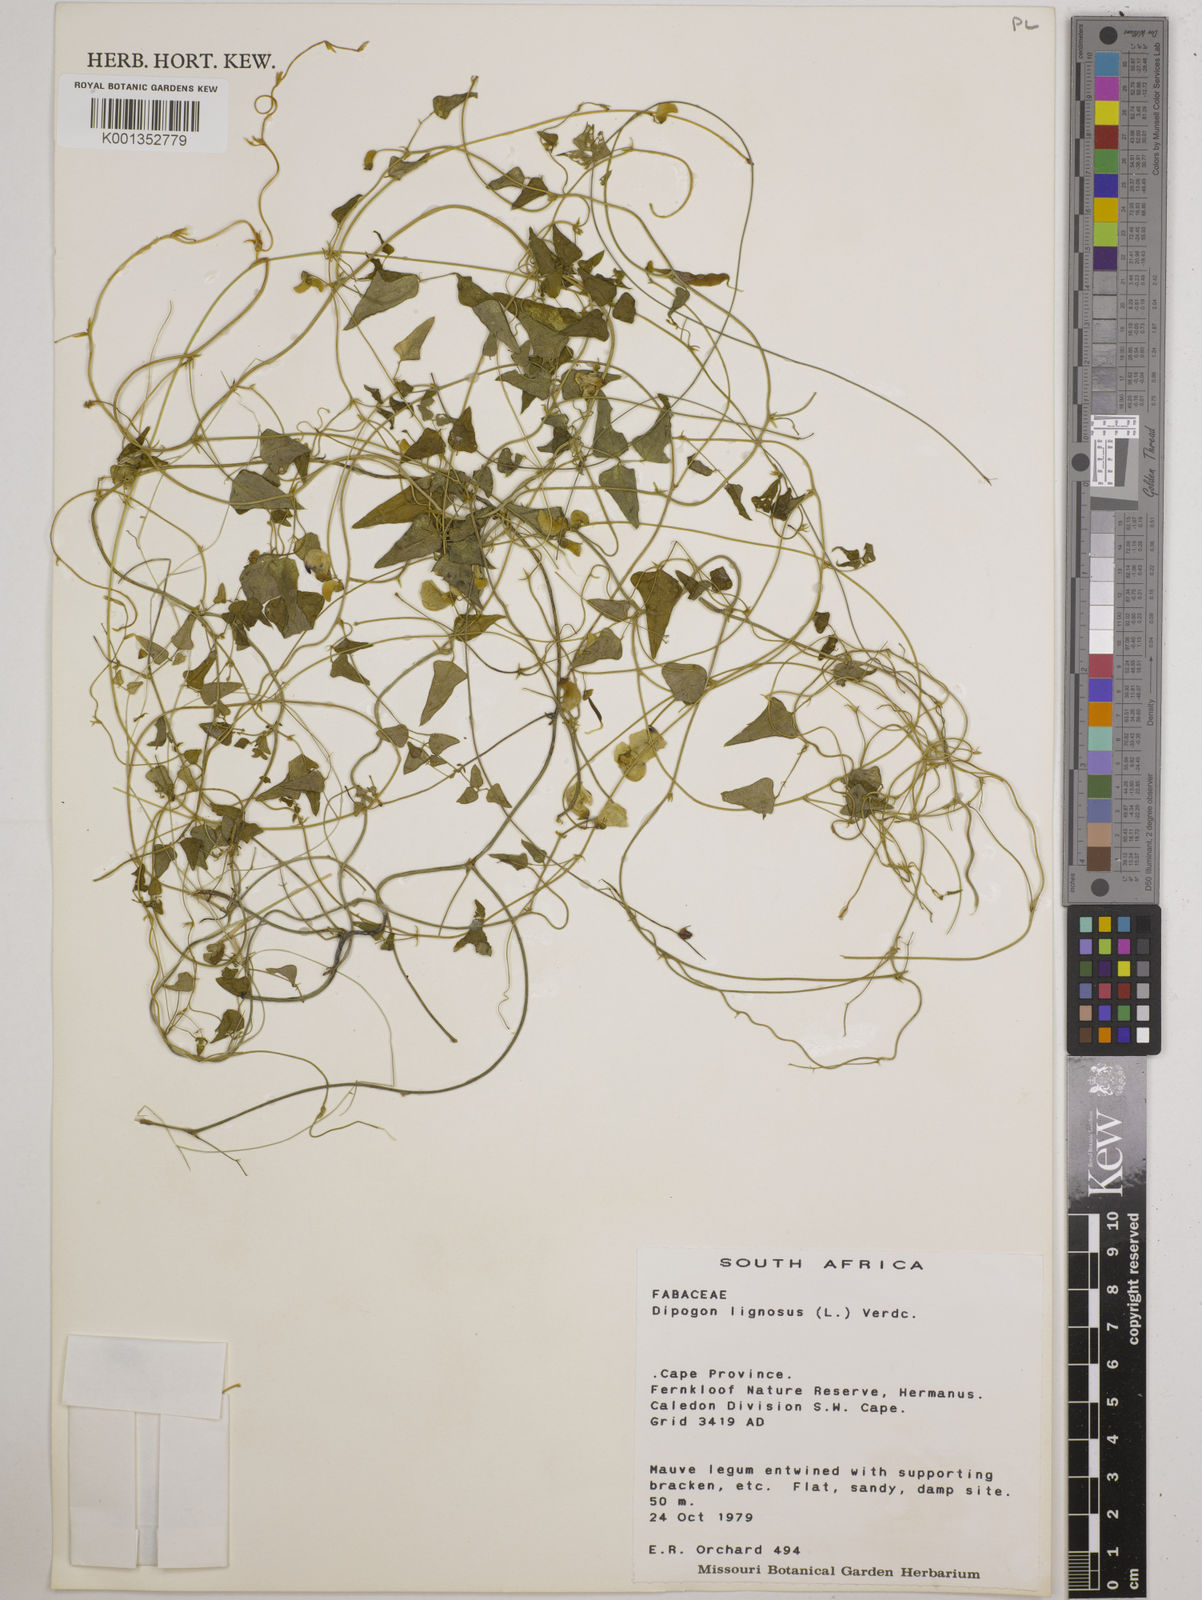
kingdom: Plantae
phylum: Tracheophyta
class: Magnoliopsida
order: Fabales
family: Fabaceae
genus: Dipogon
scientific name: Dipogon lignosus
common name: Okie bean
